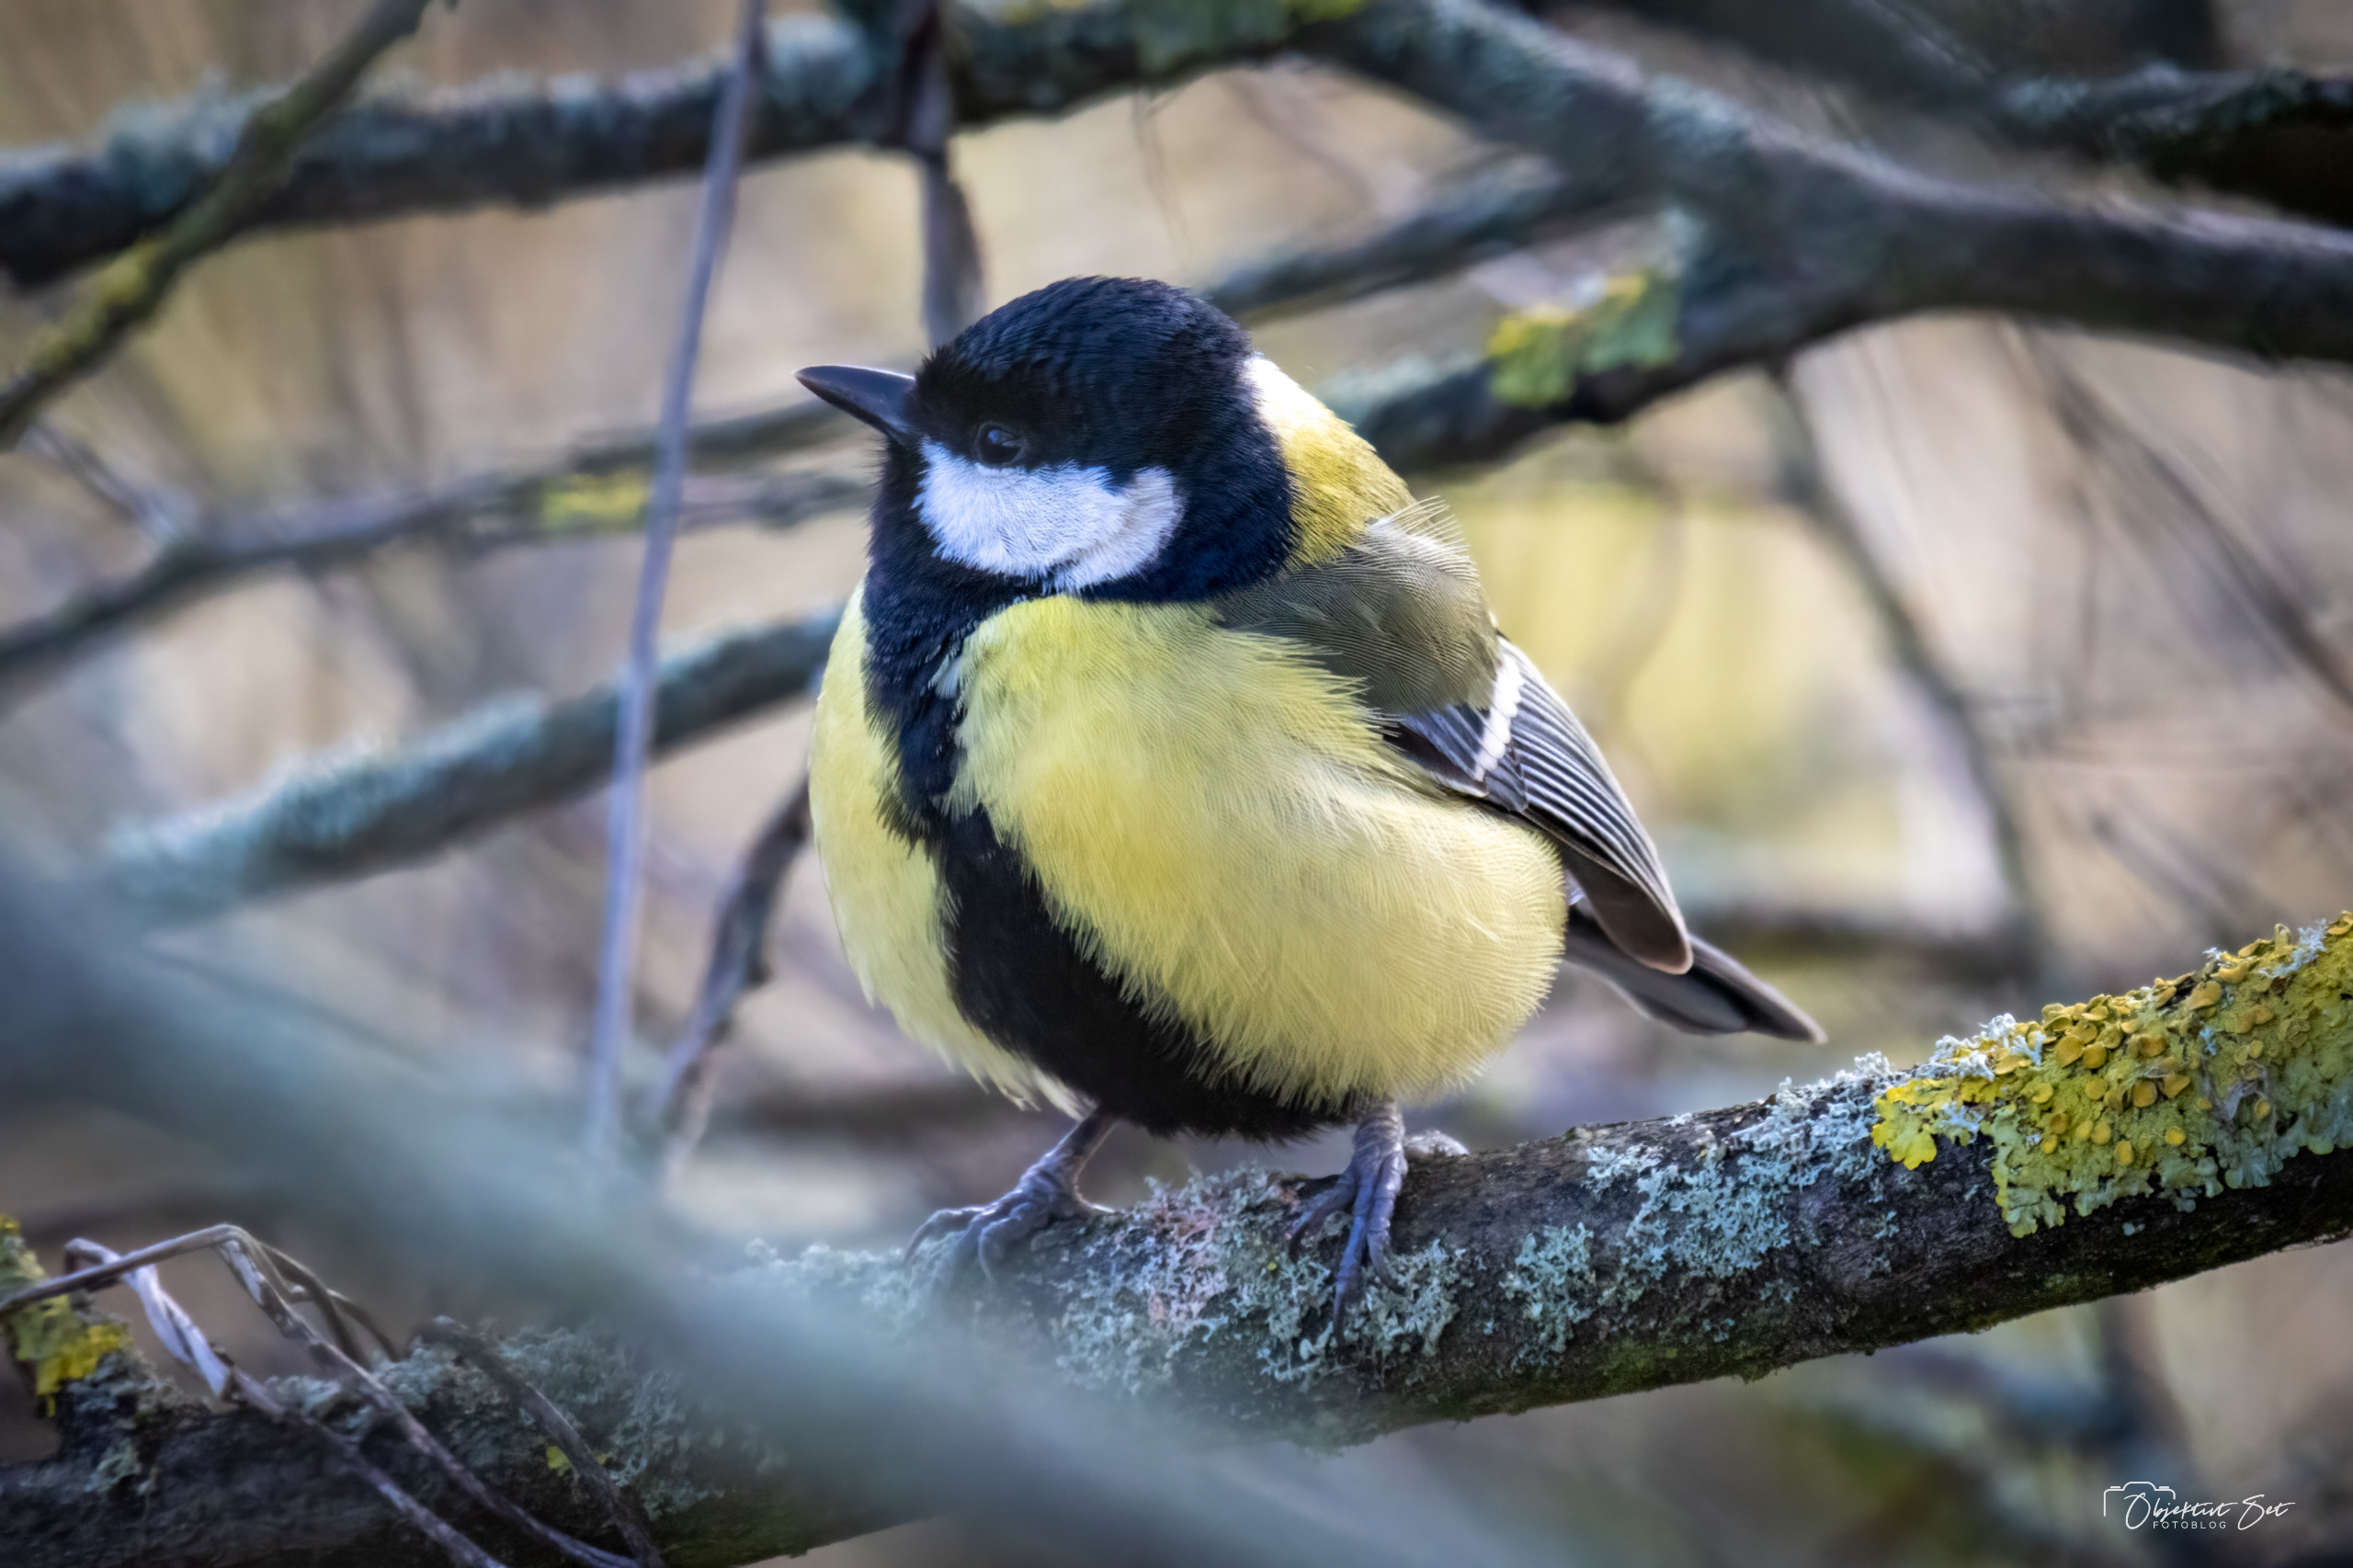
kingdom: Animalia
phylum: Chordata
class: Aves
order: Passeriformes
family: Paridae
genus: Parus
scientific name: Parus major
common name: Musvit
